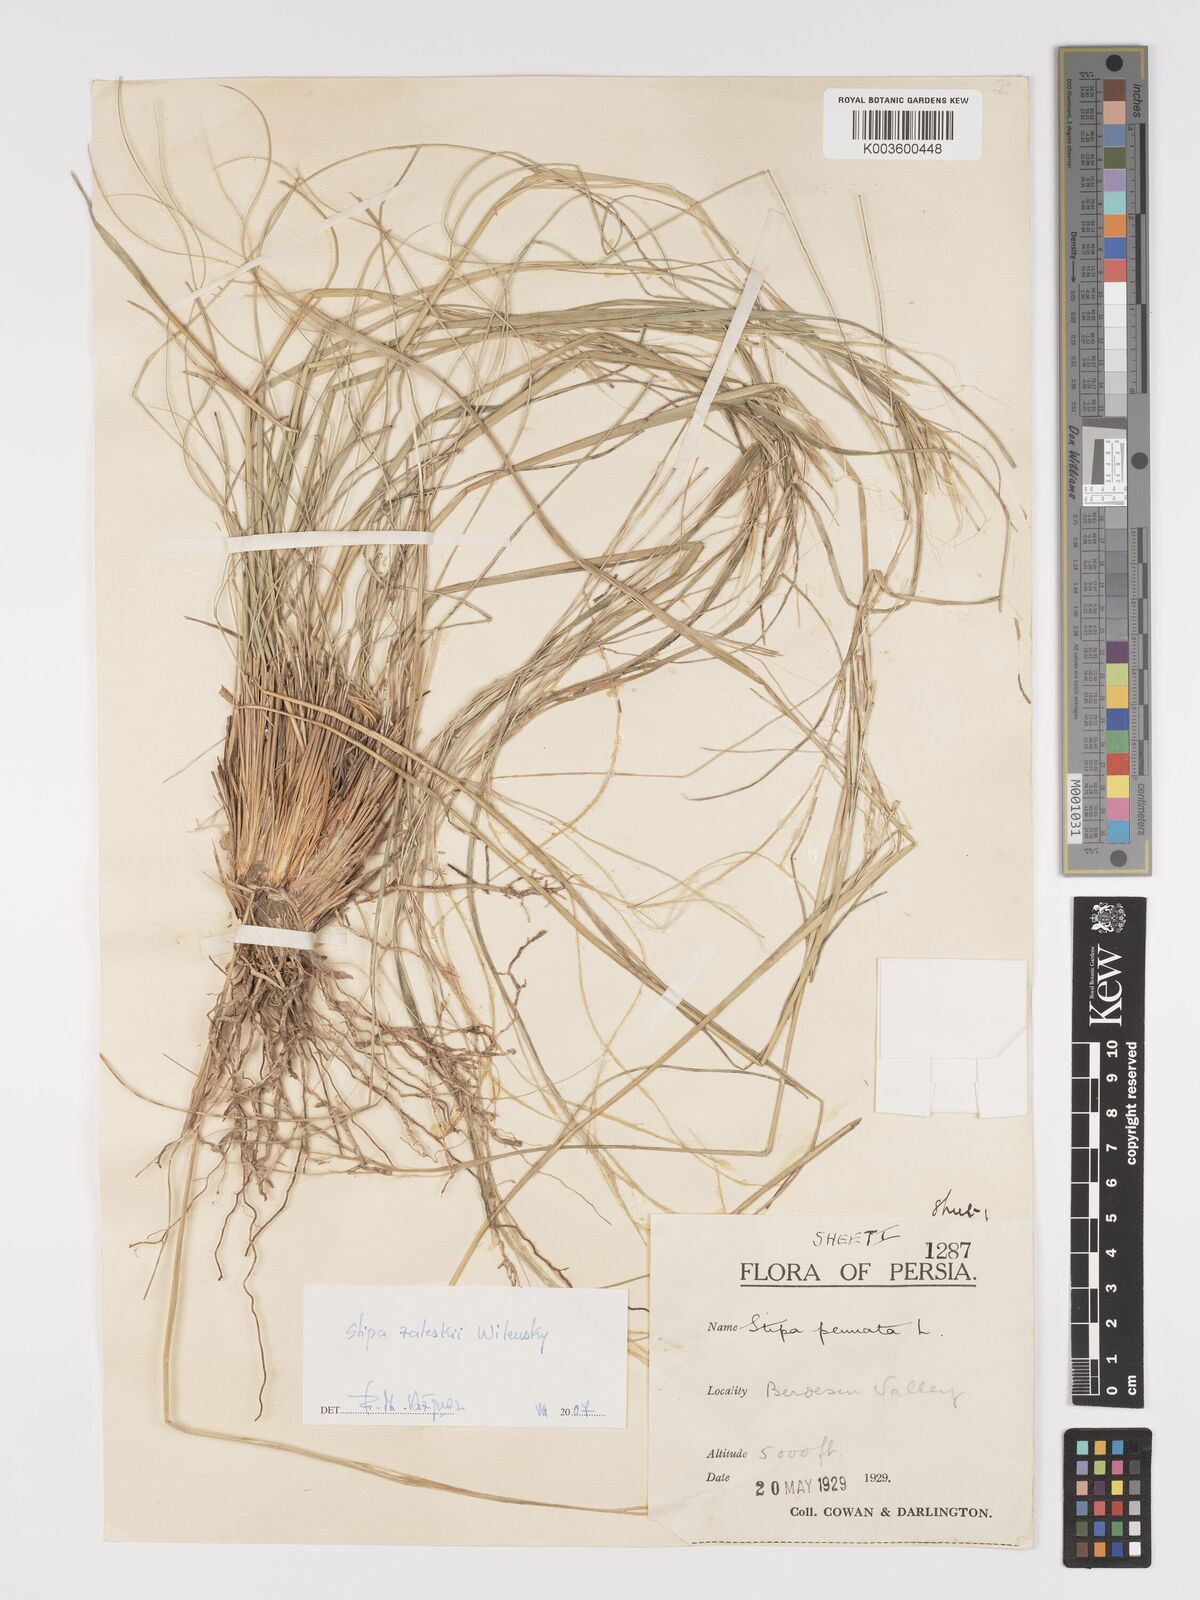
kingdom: Plantae
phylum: Tracheophyta
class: Liliopsida
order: Poales
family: Poaceae
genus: Stipa
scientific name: Stipa zalesskyi
